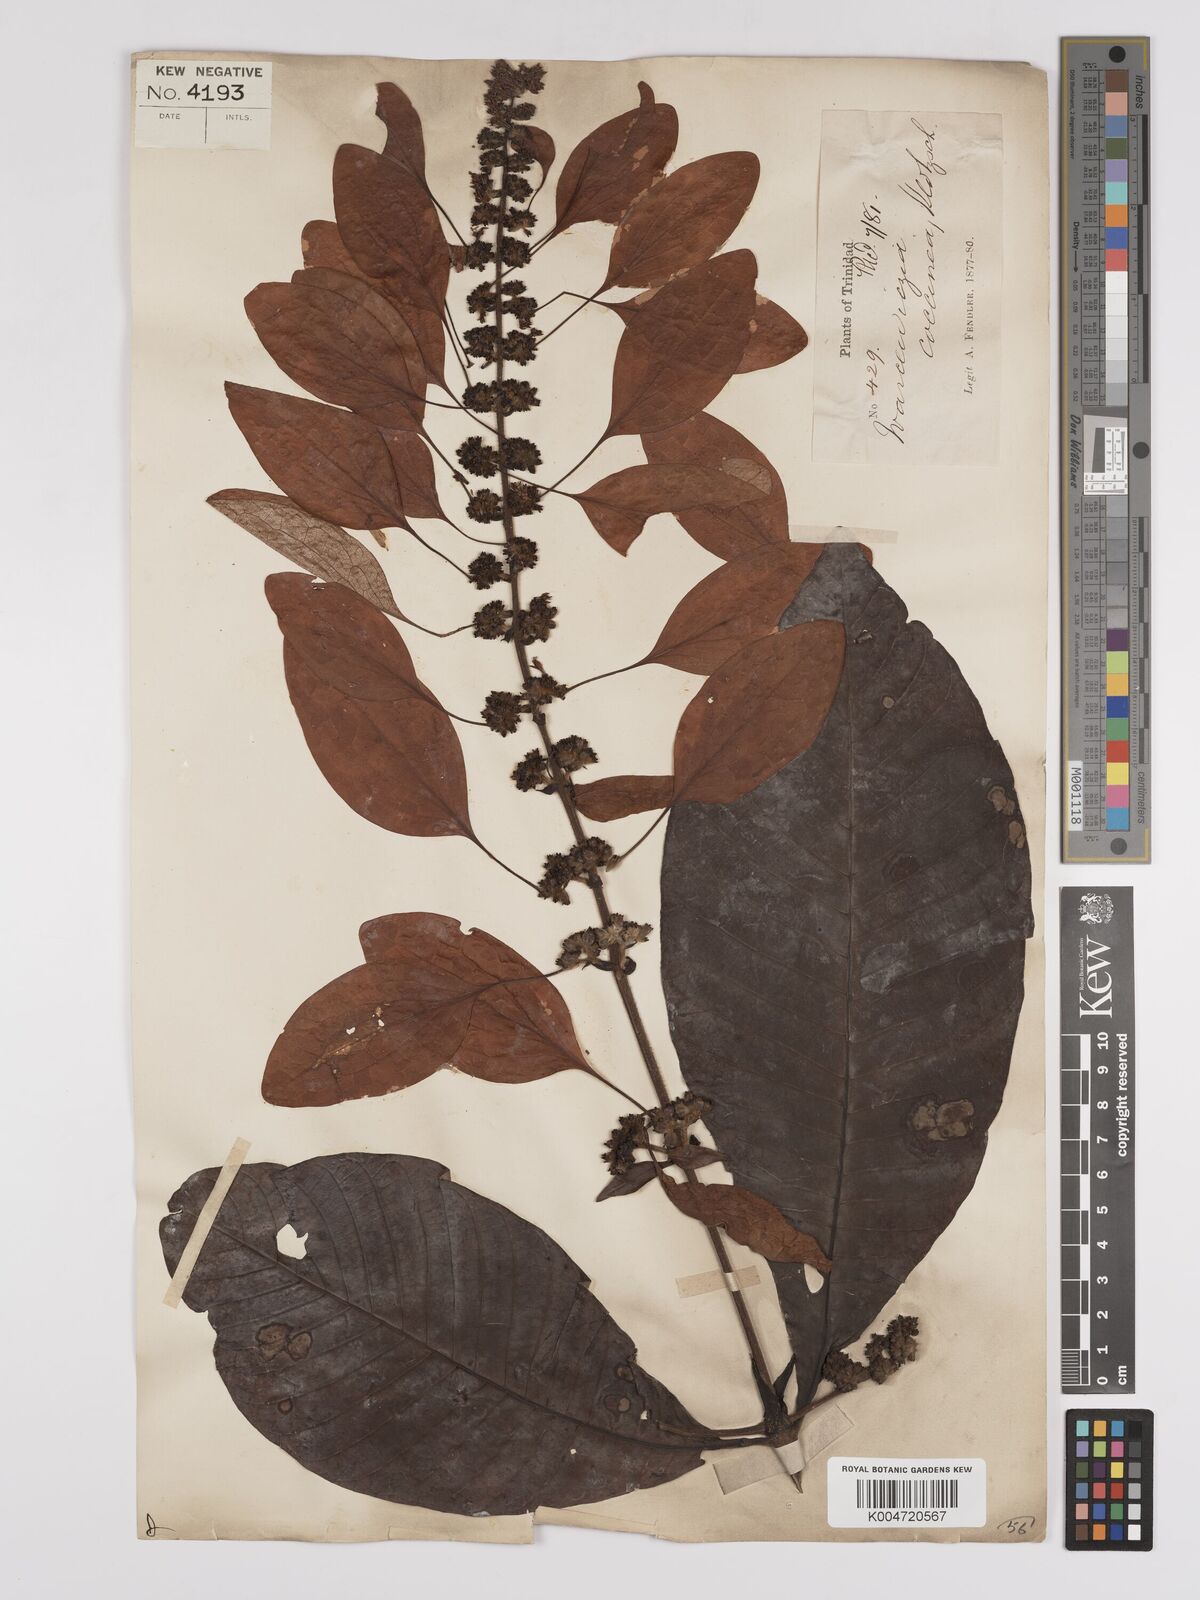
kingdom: Plantae
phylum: Tracheophyta
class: Magnoliopsida
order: Gentianales
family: Rubiaceae
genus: Warszewiczia
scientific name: Warszewiczia coccinea
